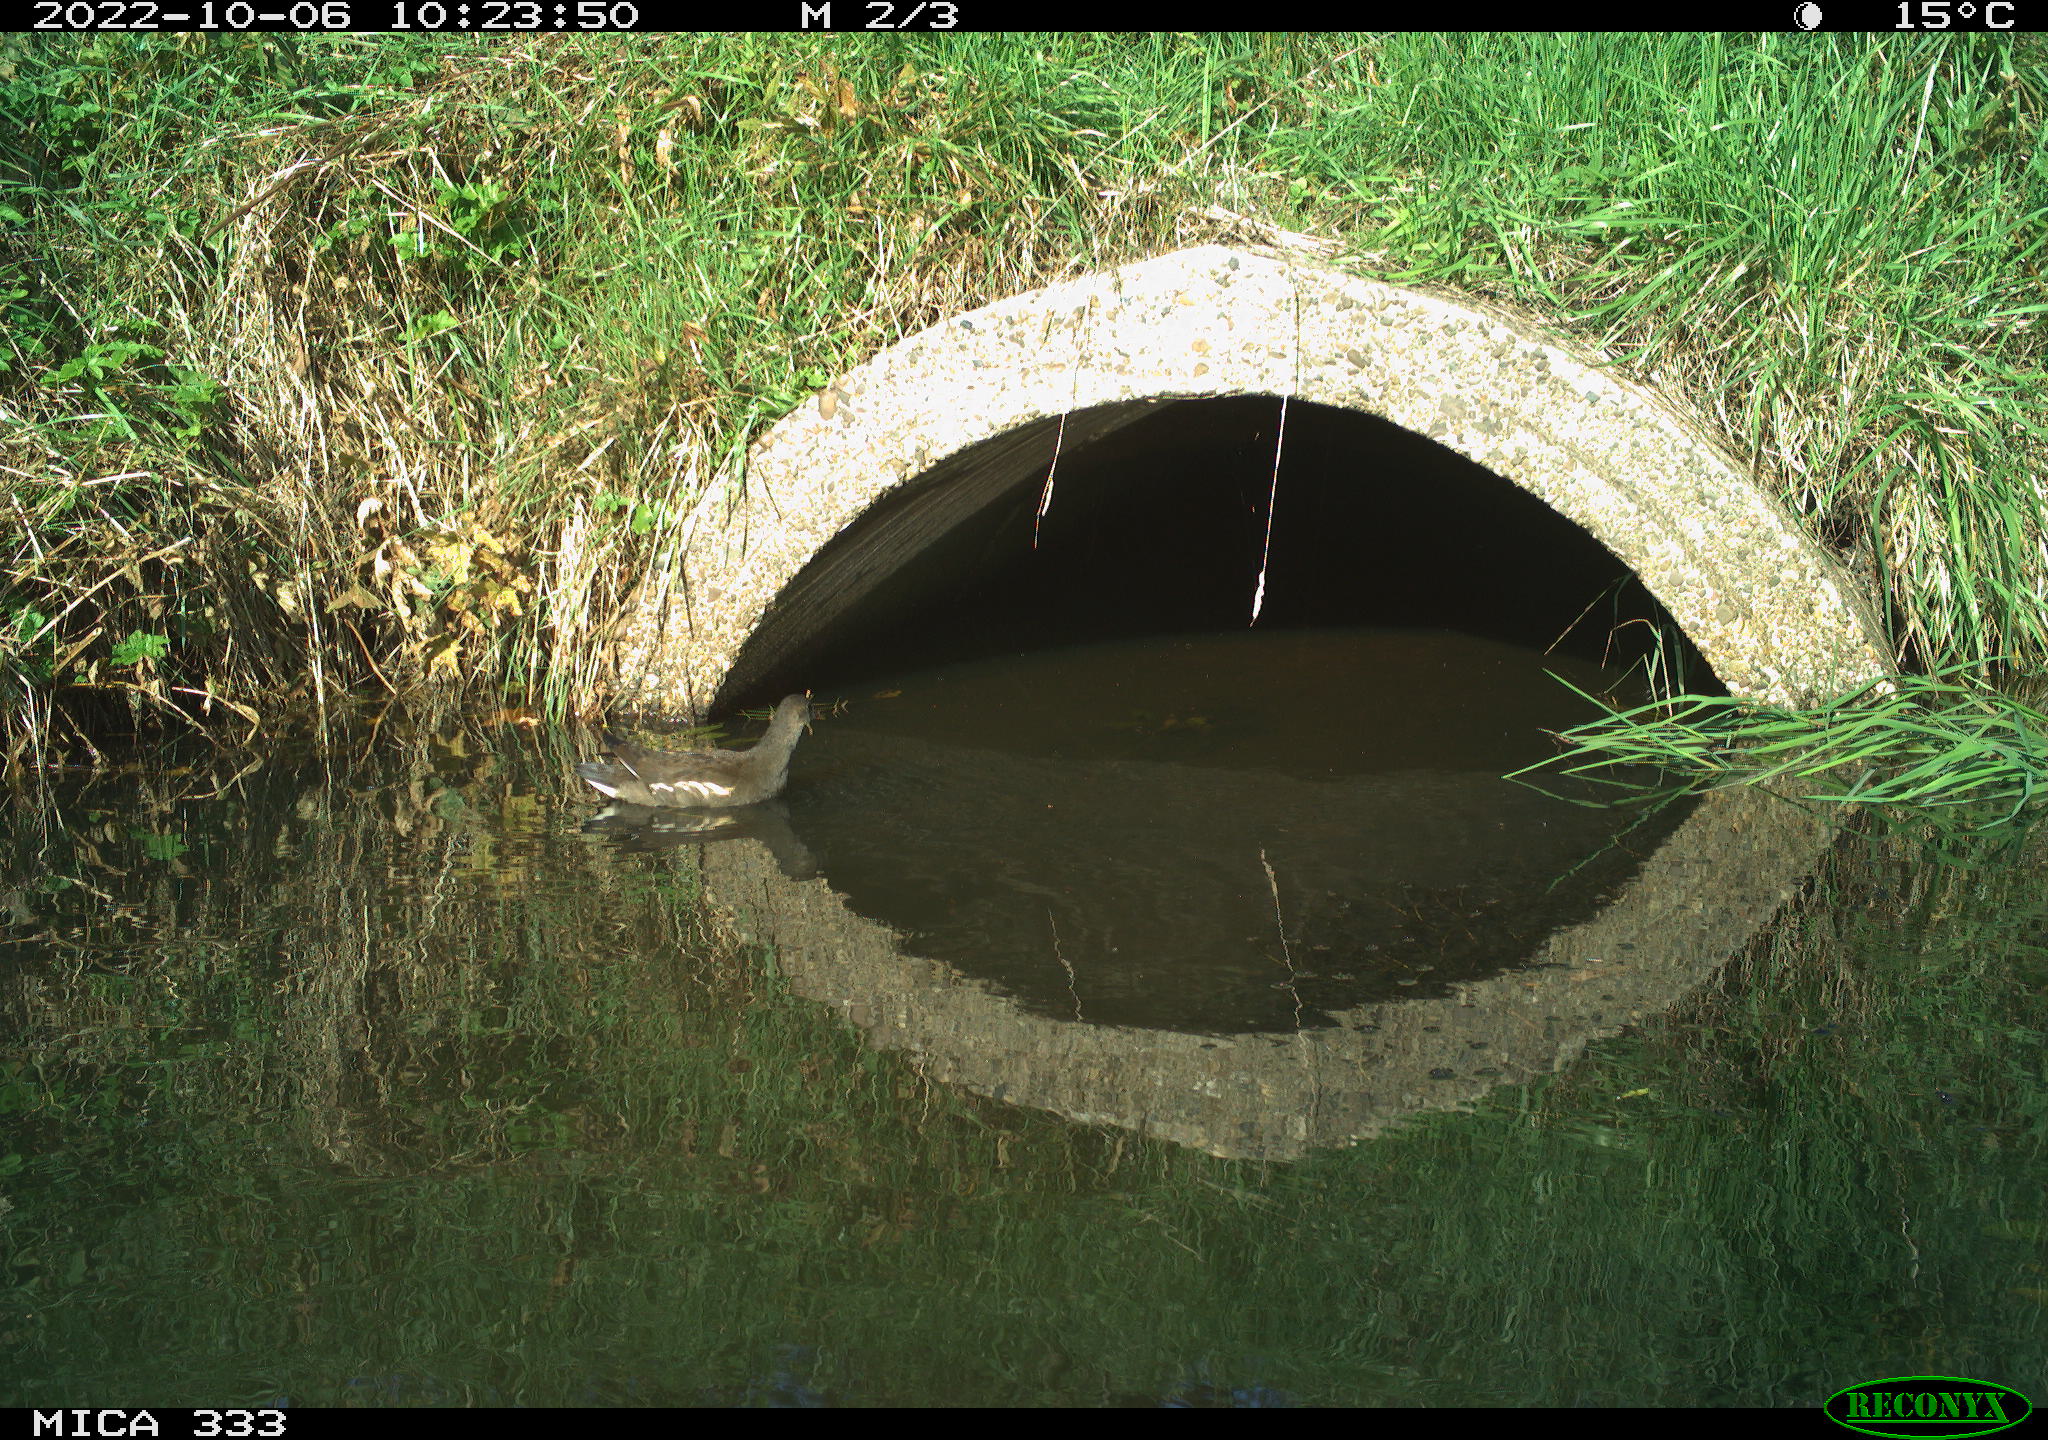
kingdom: Animalia
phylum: Chordata
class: Aves
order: Gruiformes
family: Rallidae
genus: Gallinula
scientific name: Gallinula chloropus
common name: Common moorhen
